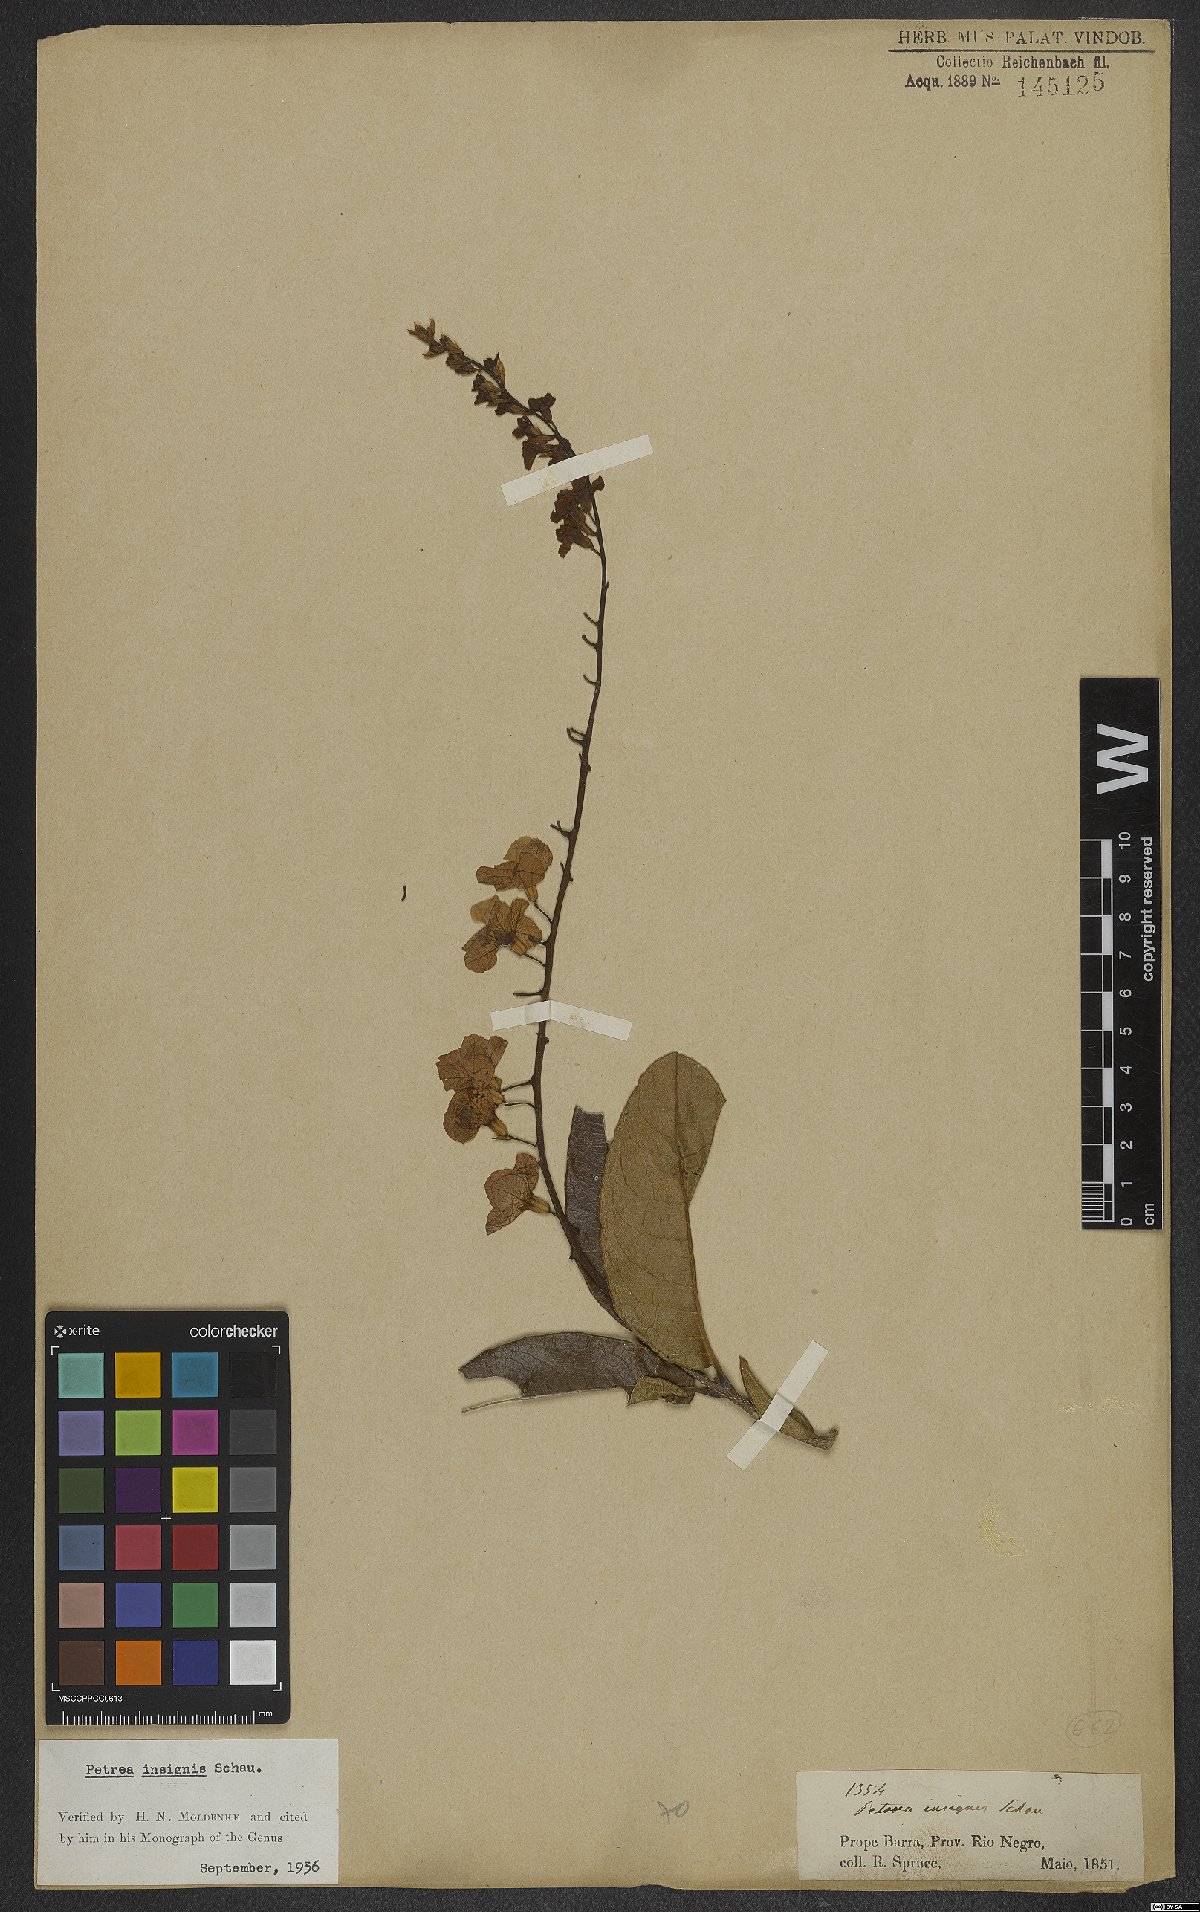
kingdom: Plantae
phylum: Tracheophyta
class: Magnoliopsida
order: Lamiales
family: Verbenaceae
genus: Petrea
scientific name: Petrea insignis
